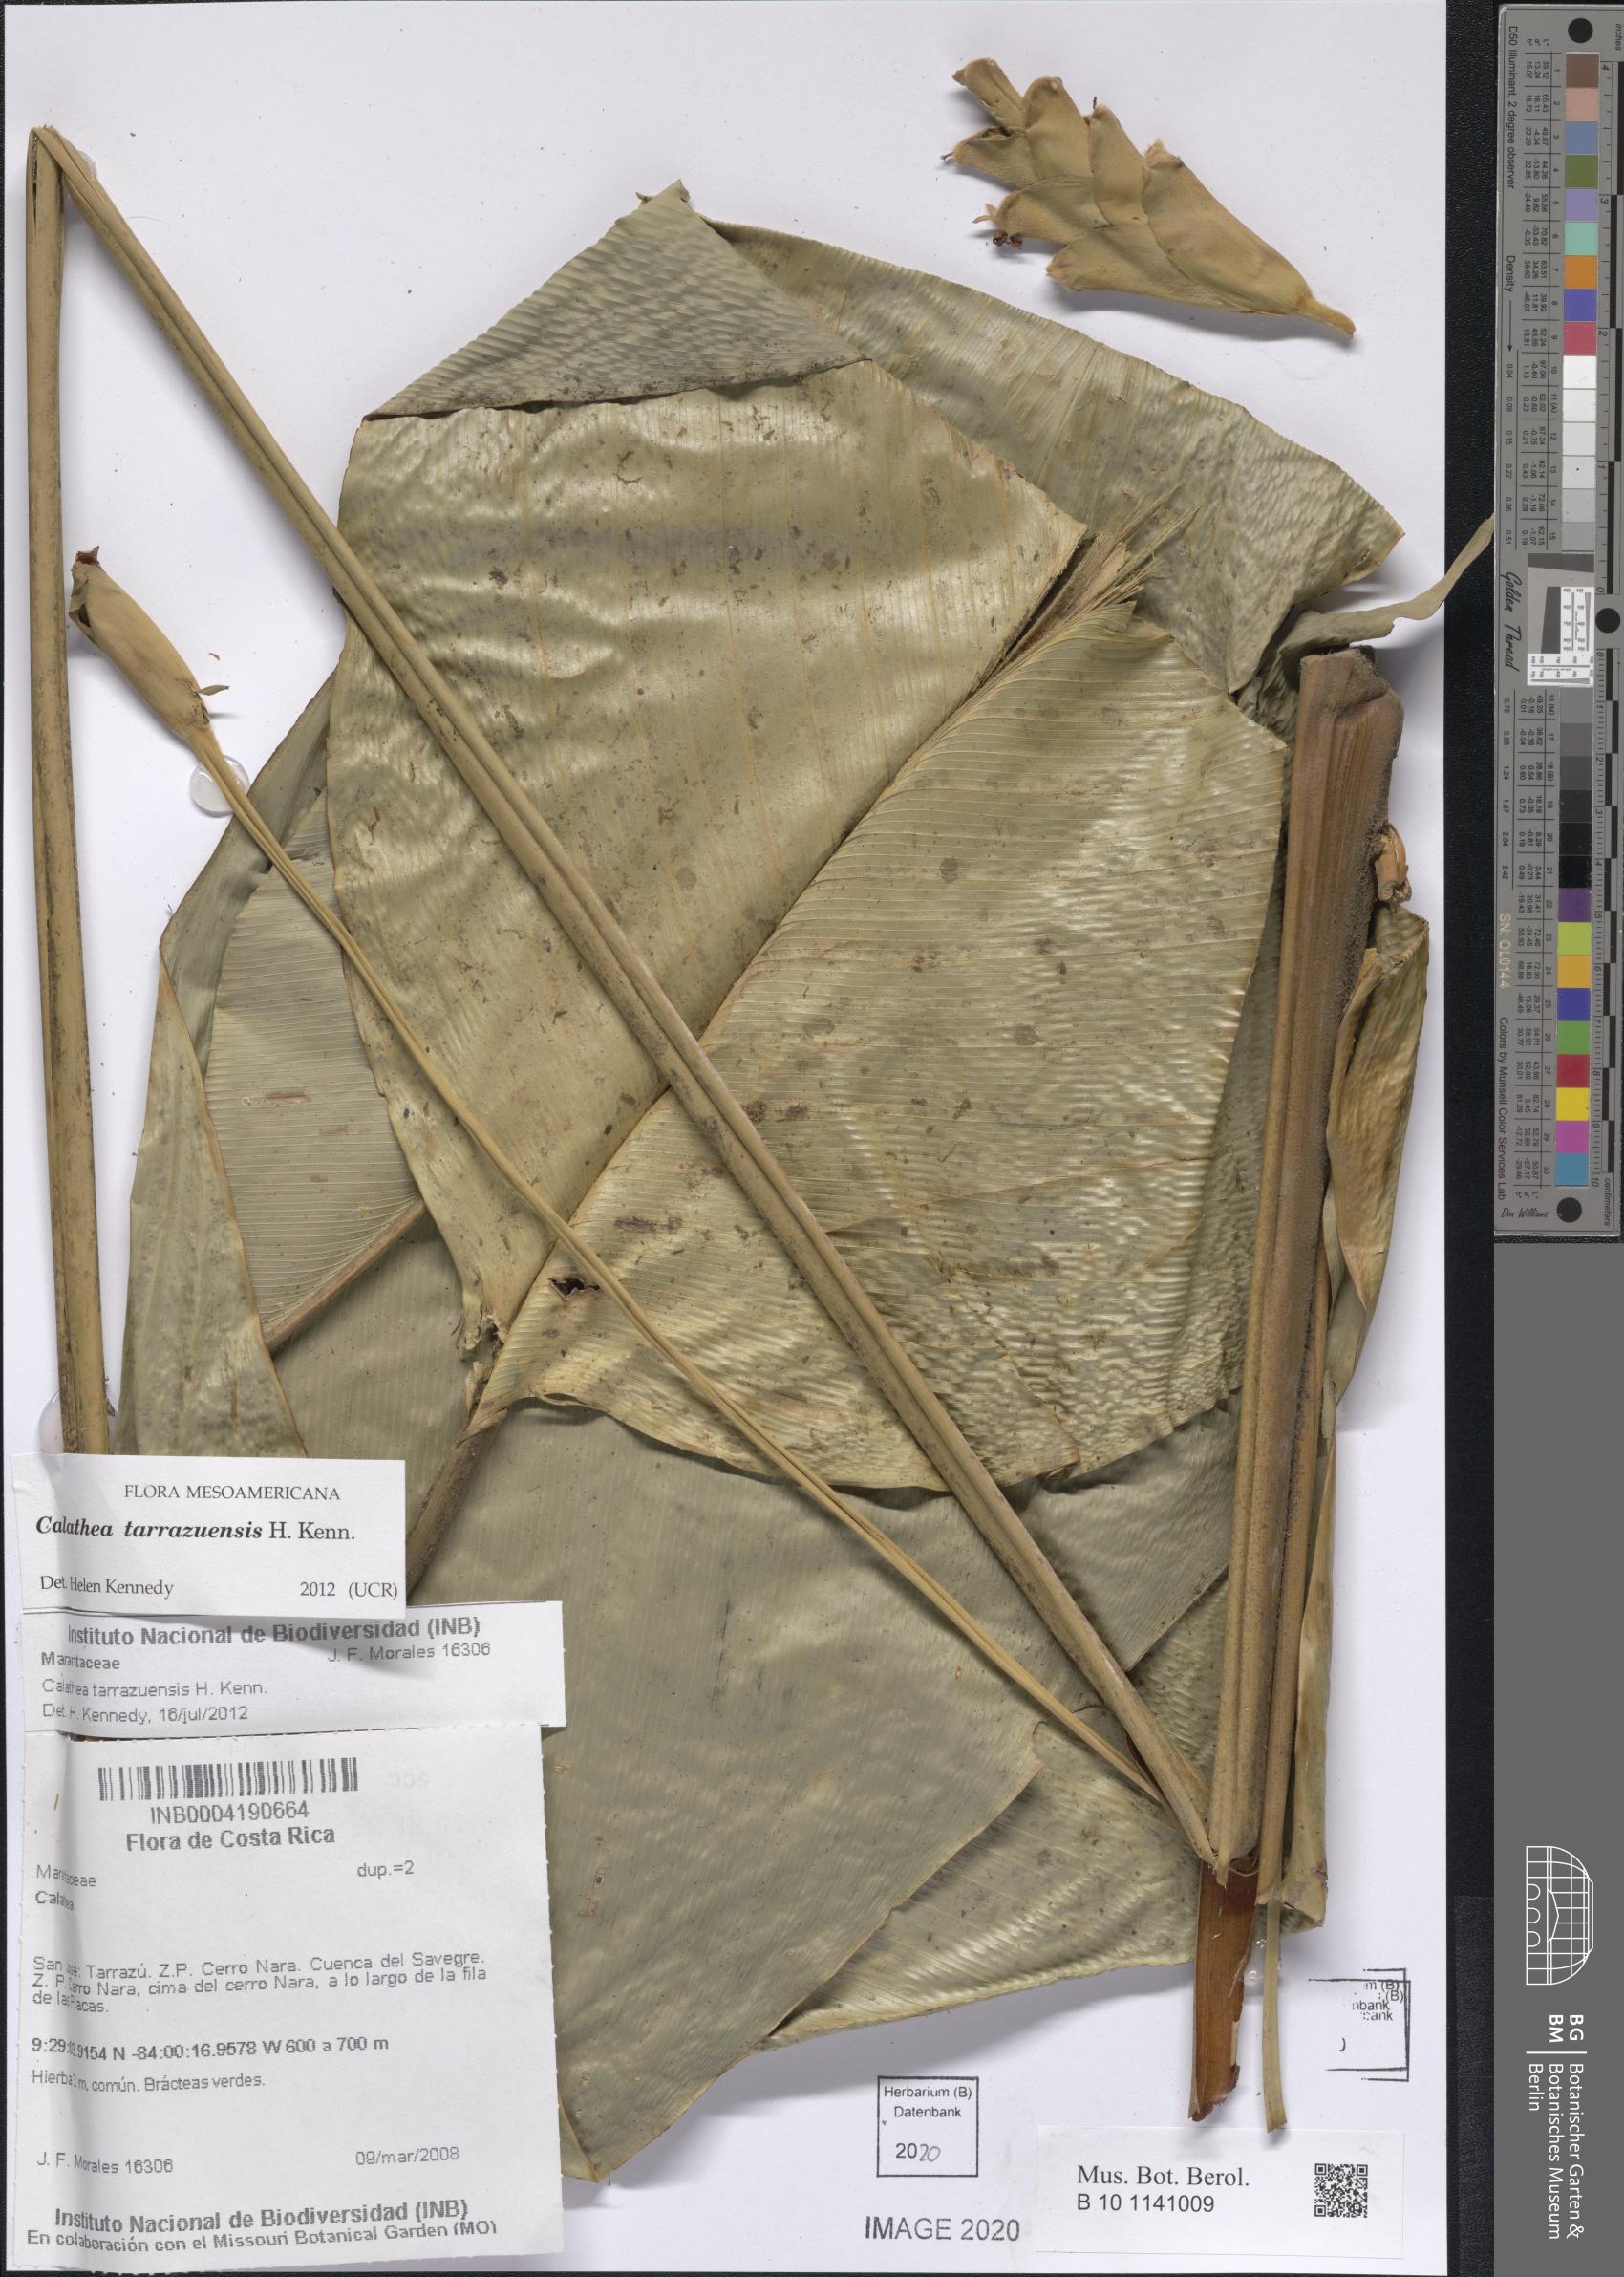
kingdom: Plantae
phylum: Tracheophyta
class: Liliopsida
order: Zingiberales
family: Marantaceae
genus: Calathea
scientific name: Calathea tarrazuensis
